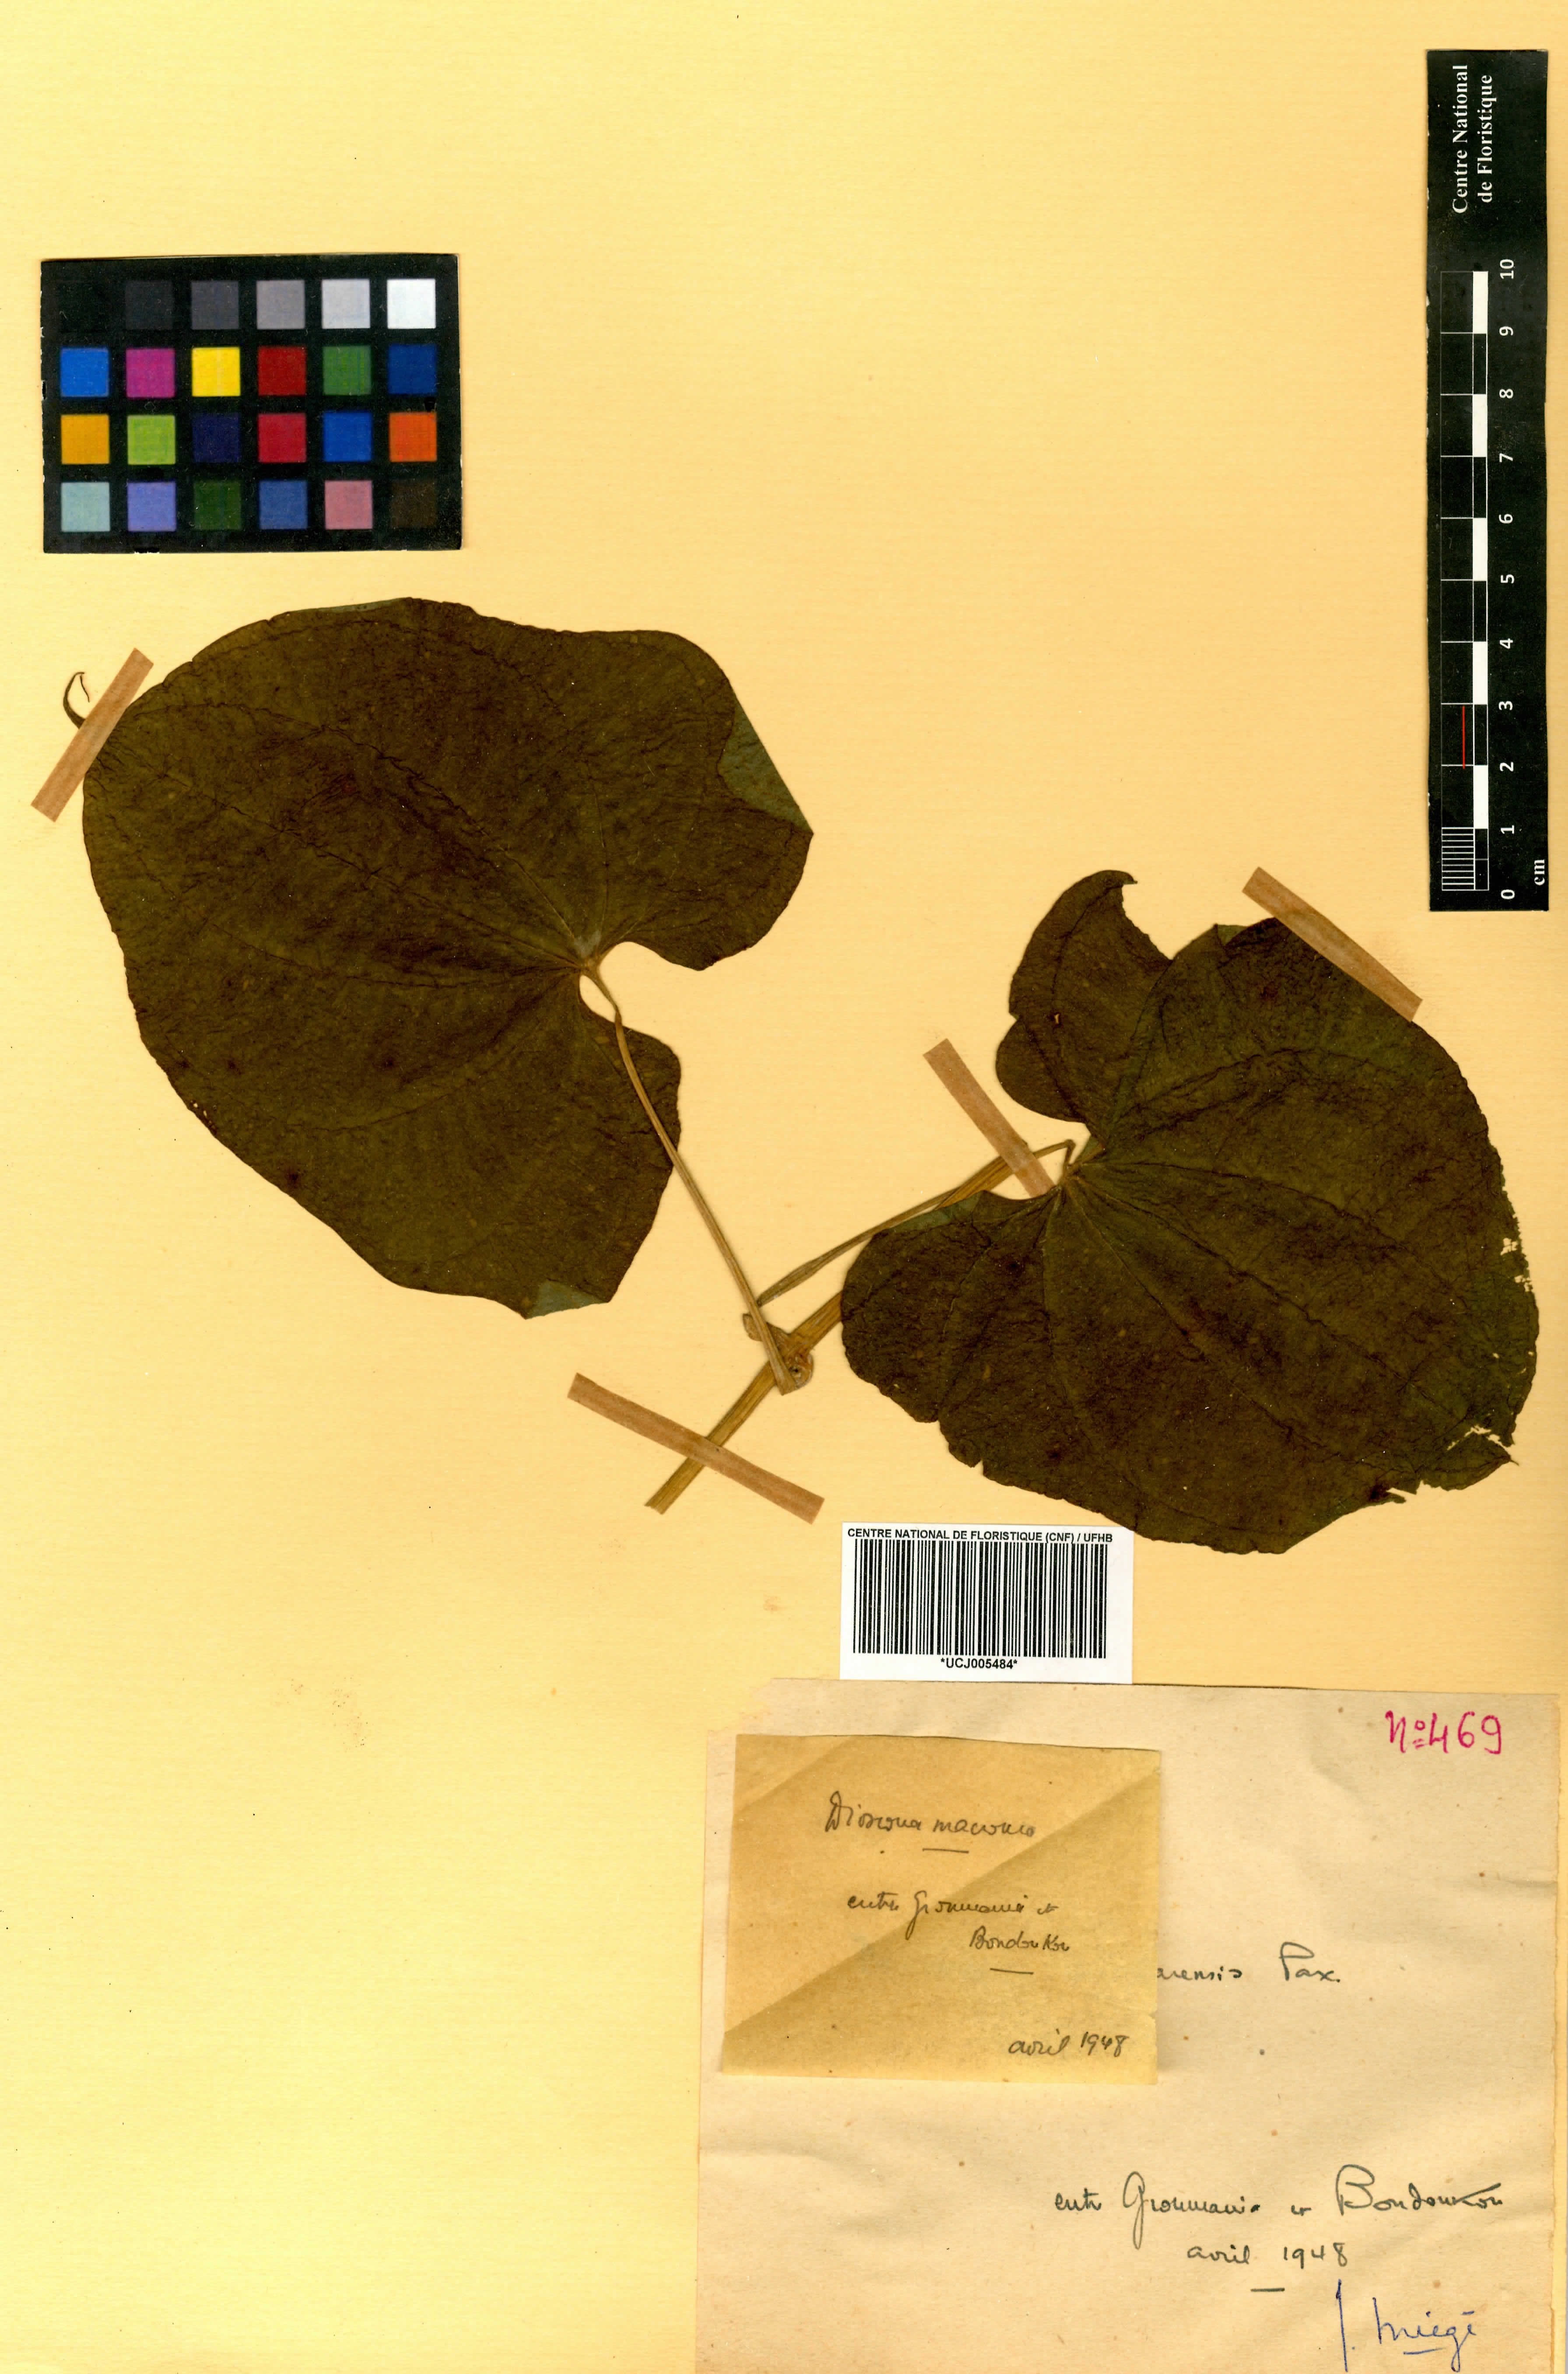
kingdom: Plantae
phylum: Tracheophyta
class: Liliopsida
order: Dioscoreales
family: Dioscoreaceae
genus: Dioscorea
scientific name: Dioscorea sansibarensis
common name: Zanzibar yam
